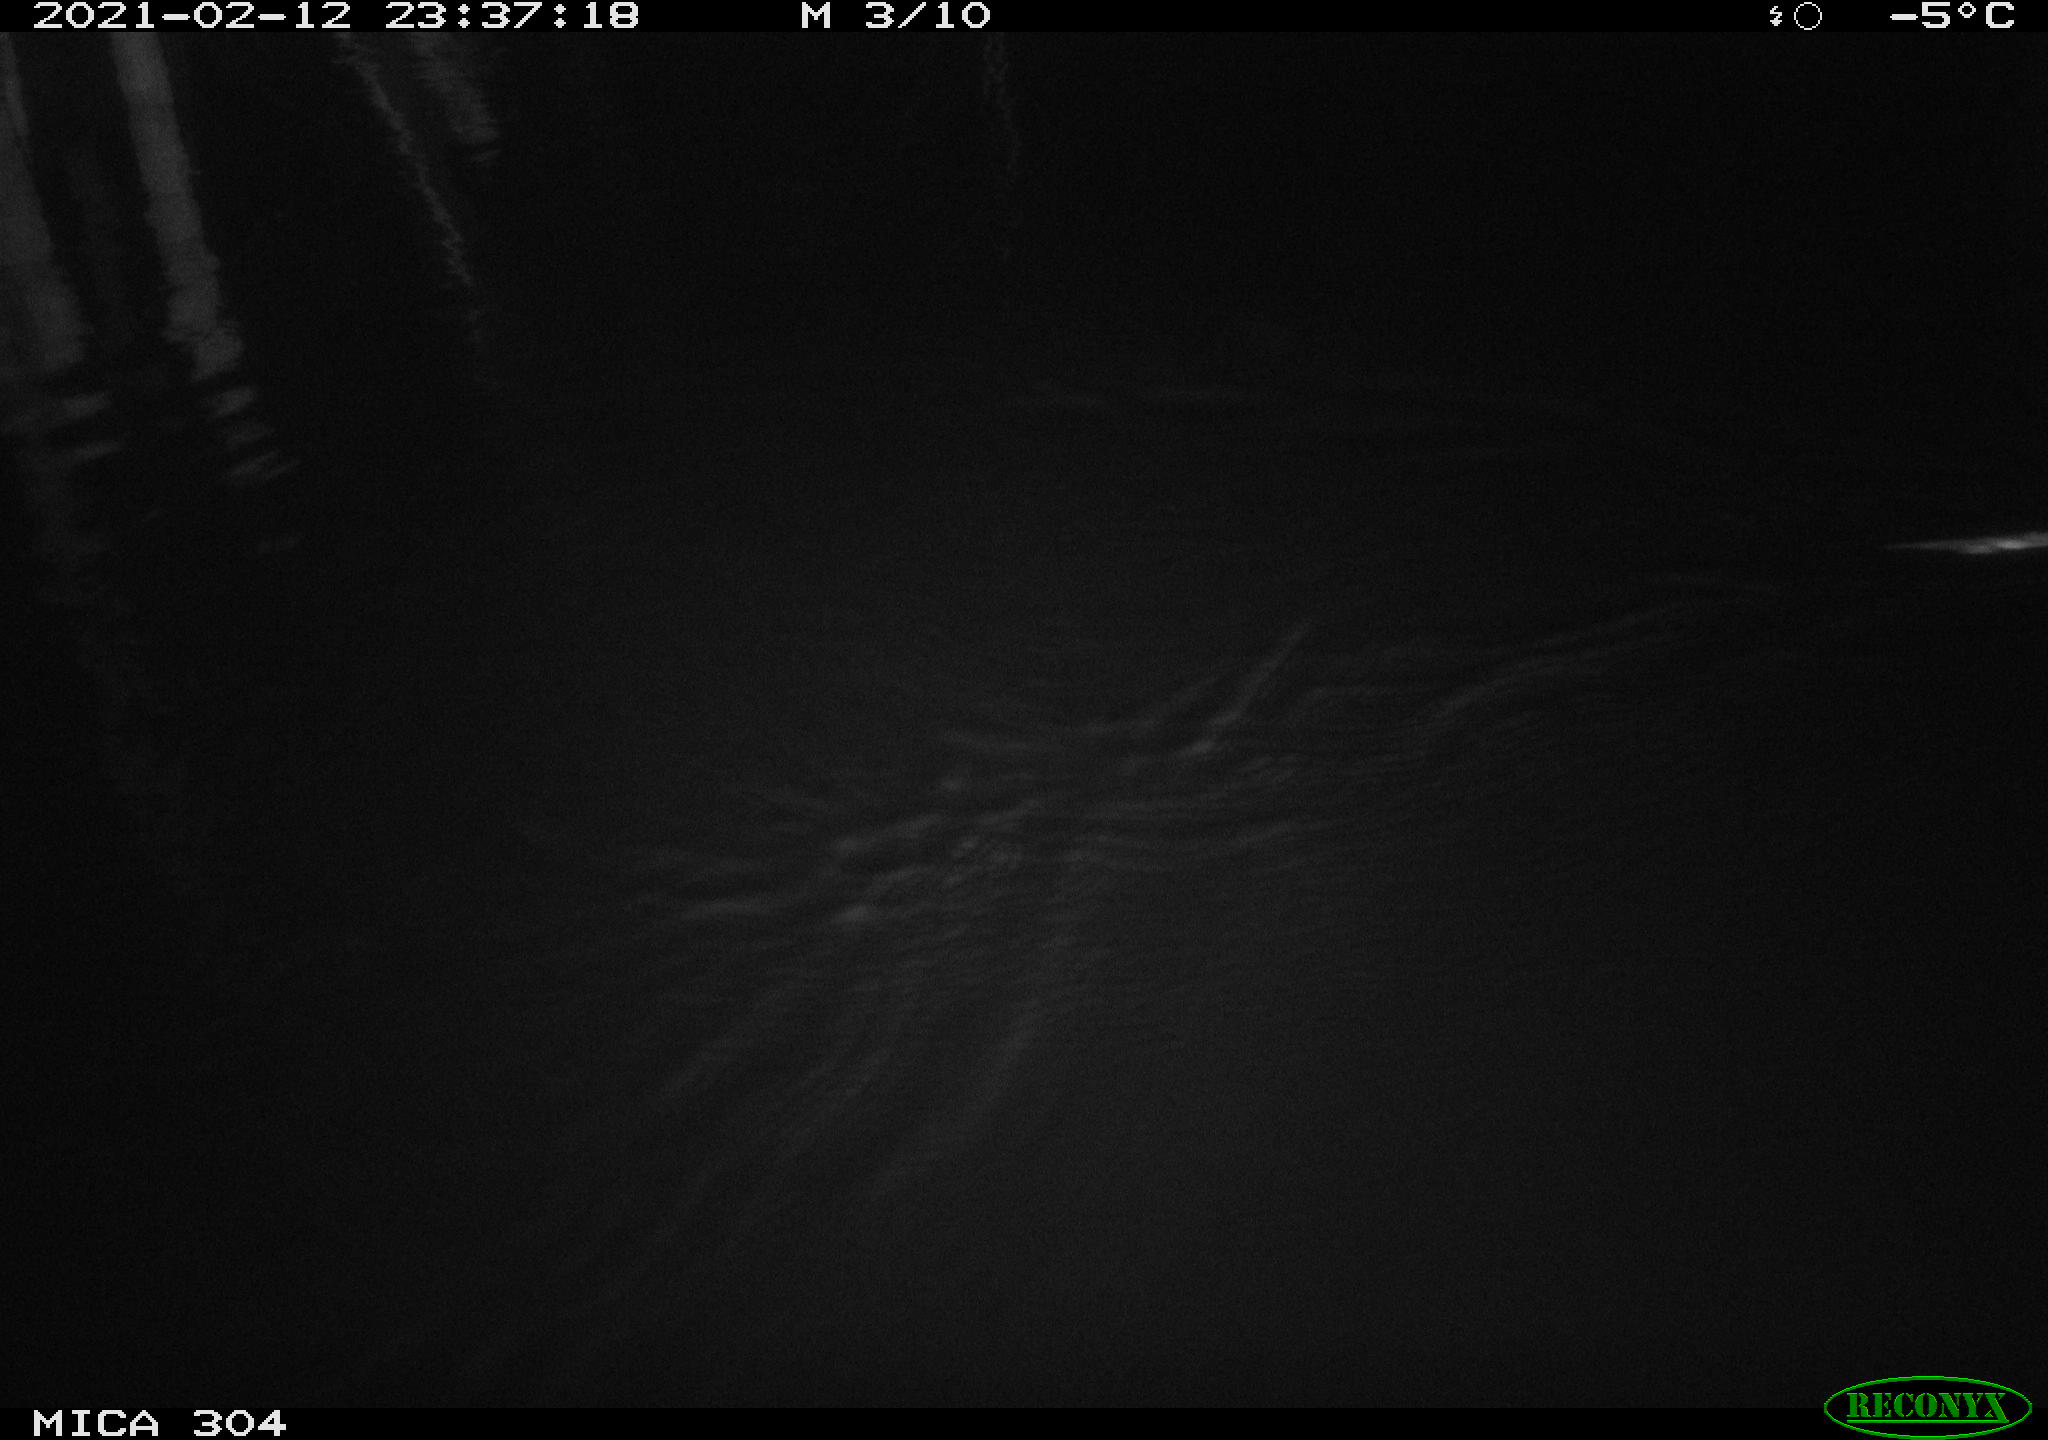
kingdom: Animalia
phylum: Chordata
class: Mammalia
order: Rodentia
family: Muridae
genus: Rattus
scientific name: Rattus norvegicus
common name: Brown rat
